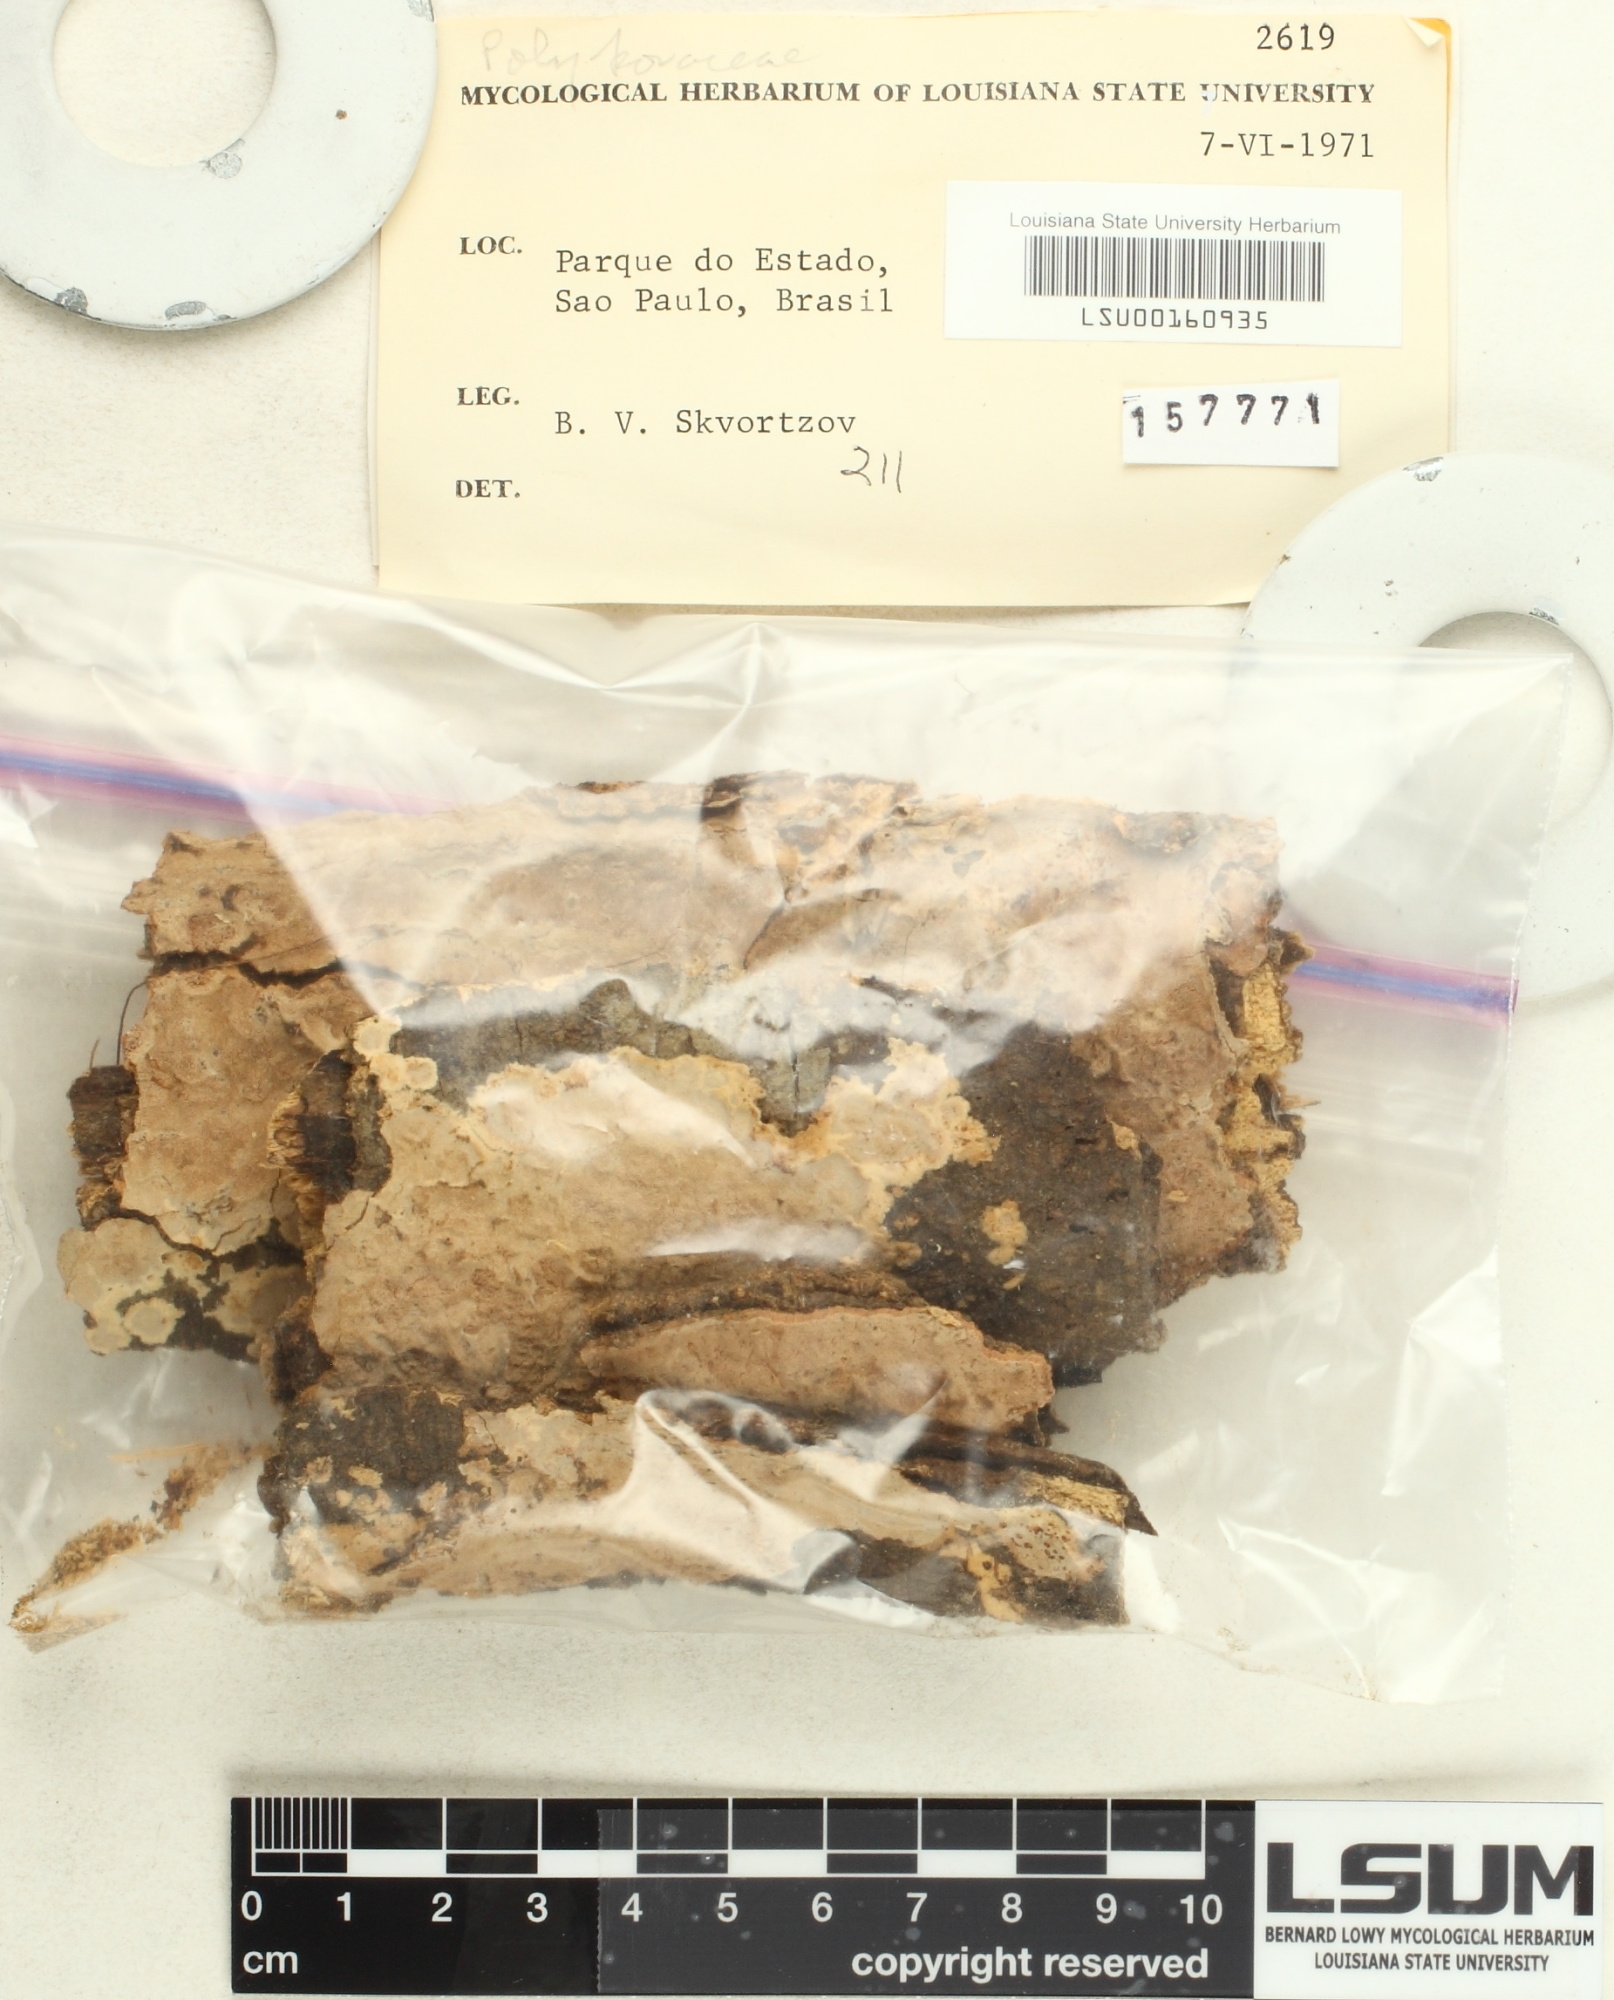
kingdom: Fungi
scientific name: Fungi
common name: Fungi
